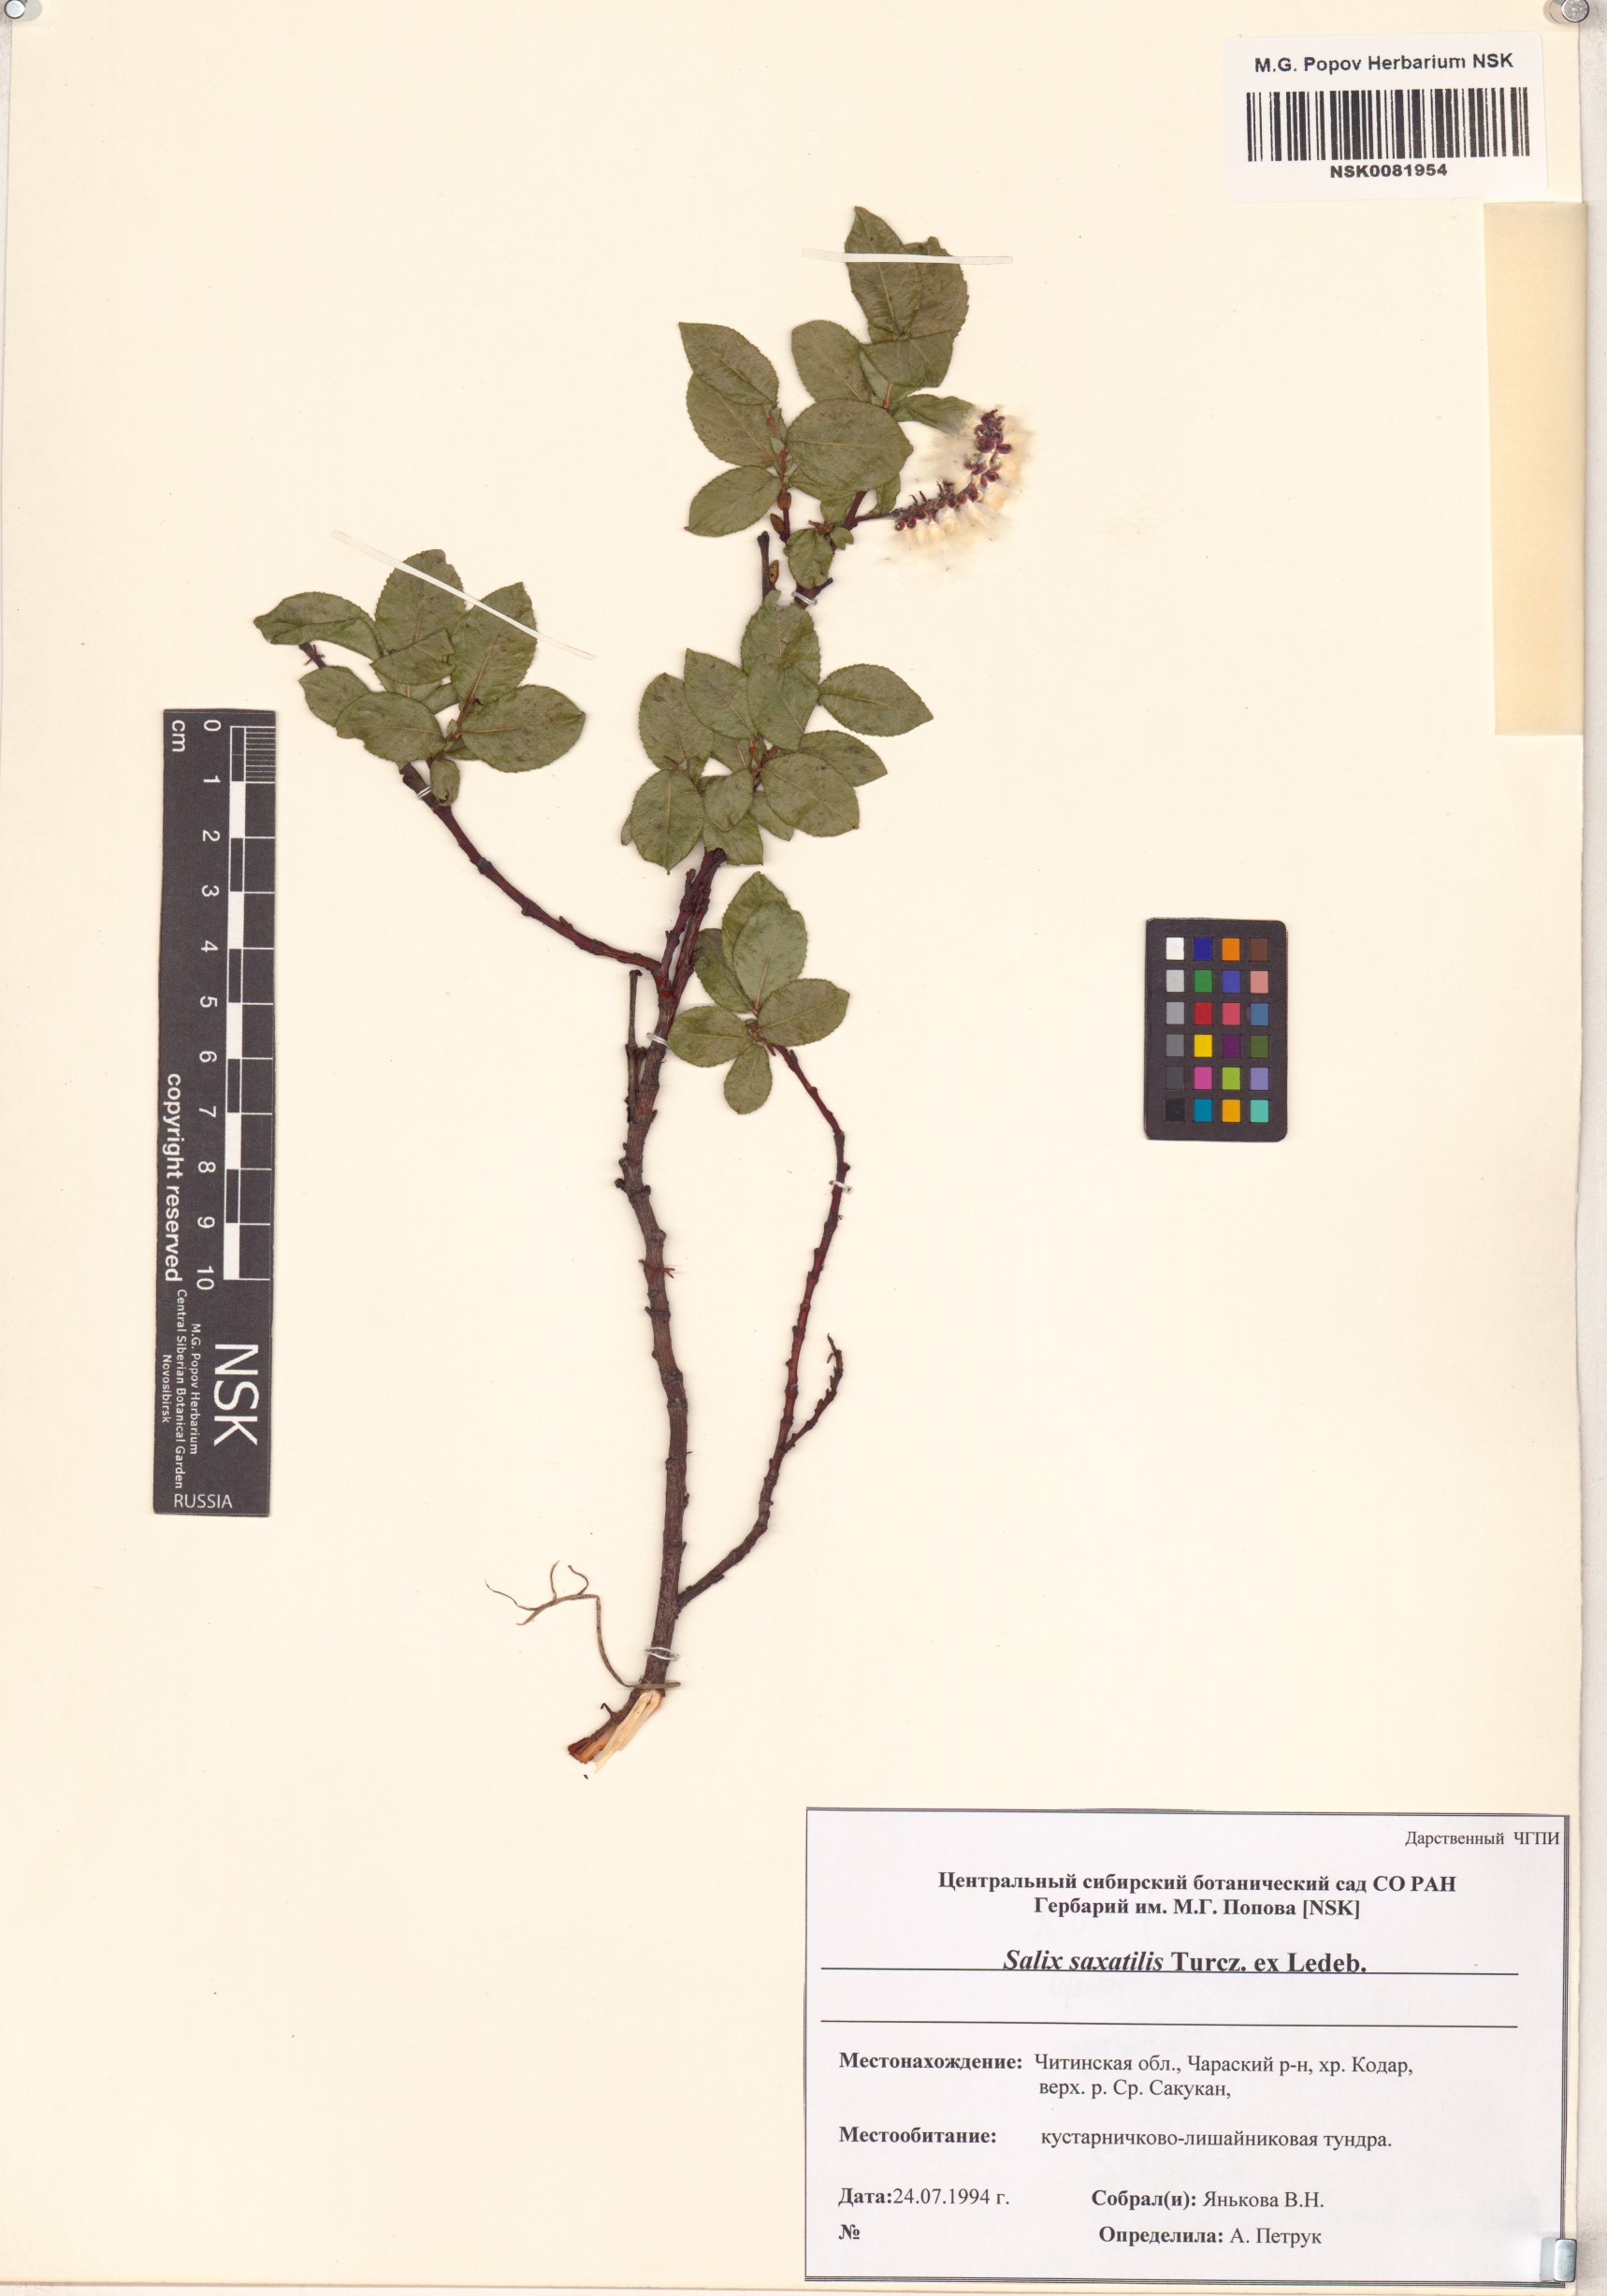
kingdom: Plantae
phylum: Tracheophyta
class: Magnoliopsida
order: Malpighiales
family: Salicaceae
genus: Salix
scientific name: Salix saxatilis
